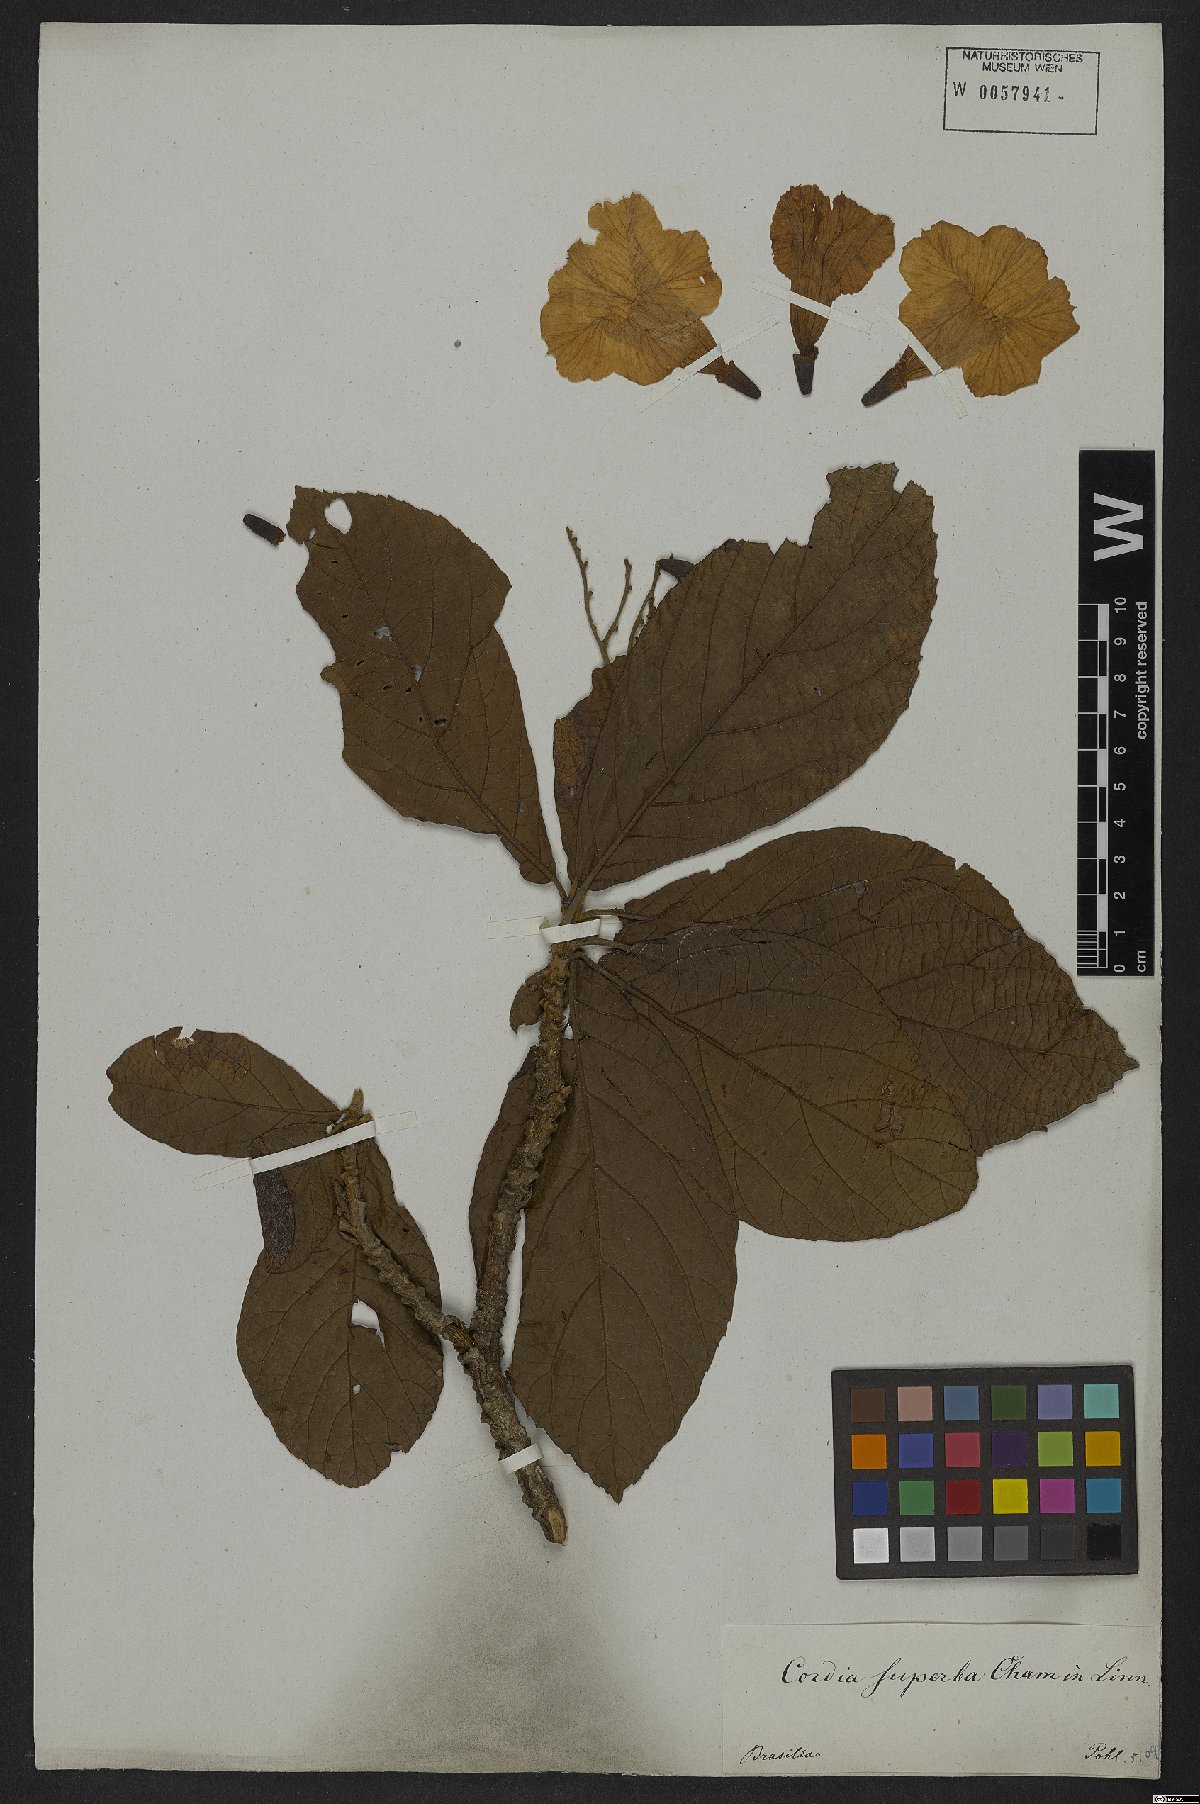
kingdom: Plantae
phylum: Tracheophyta
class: Magnoliopsida
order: Boraginales
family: Cordiaceae
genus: Cordia
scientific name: Cordia superba
